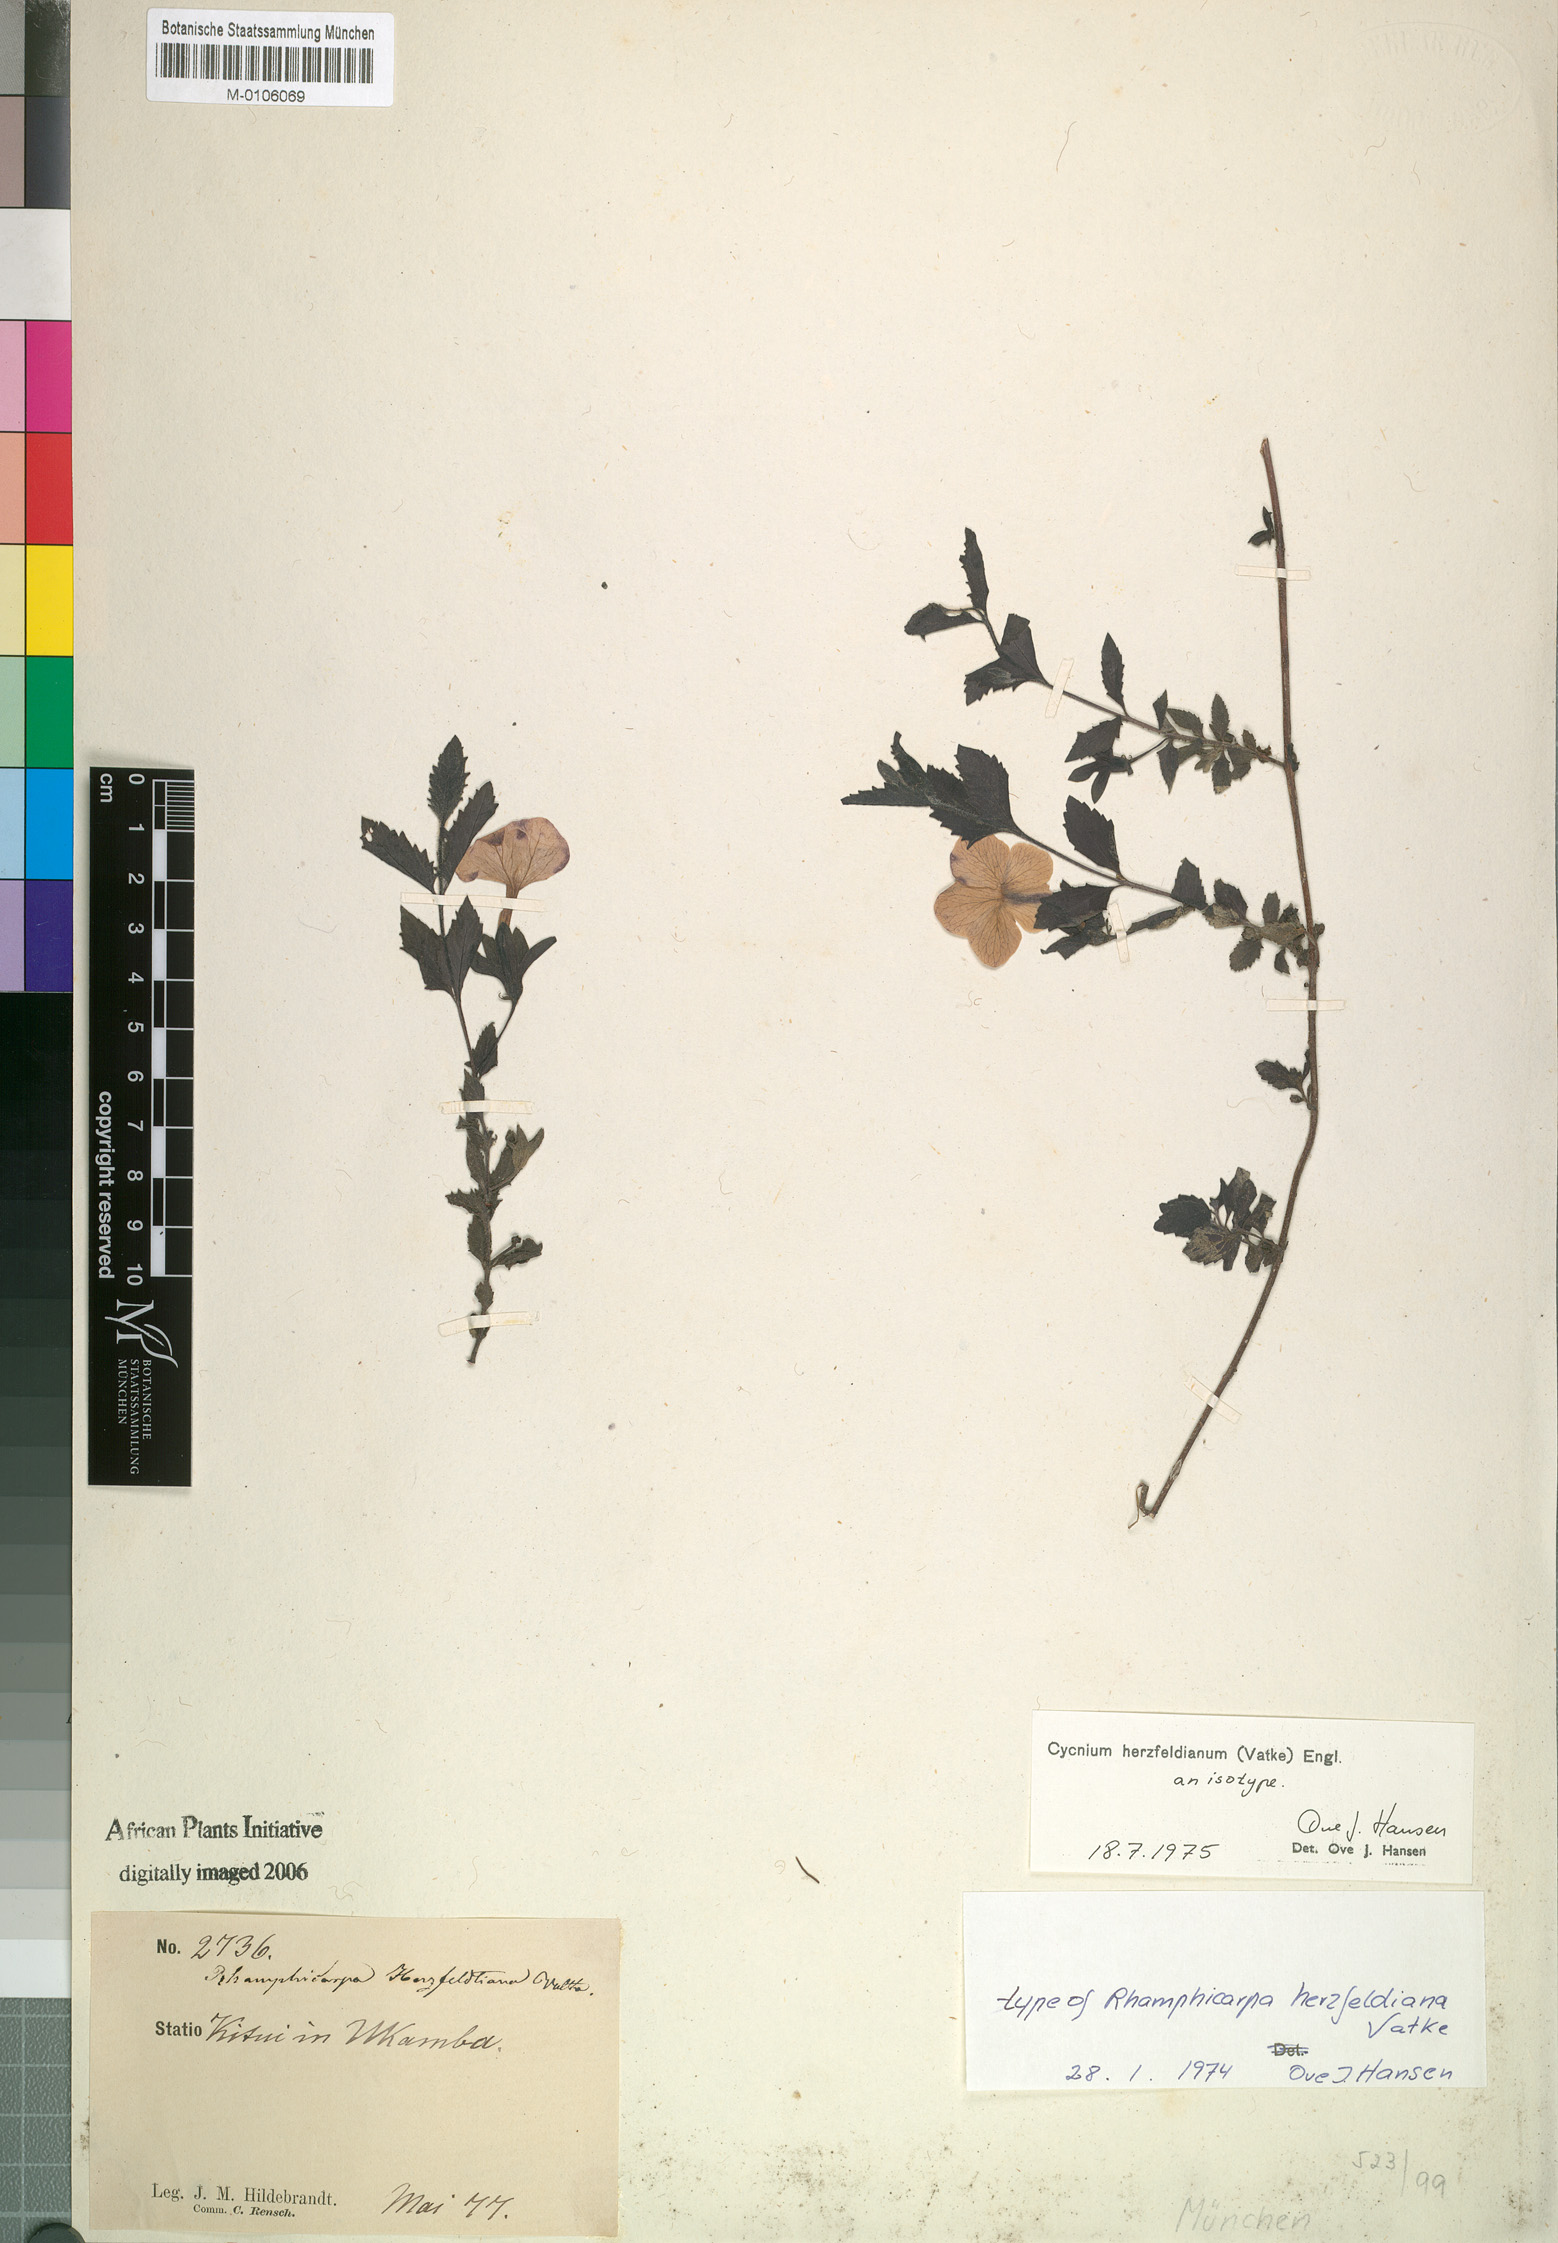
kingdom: Plantae
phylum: Tracheophyta
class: Magnoliopsida
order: Lamiales
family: Orobanchaceae
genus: Cycnium
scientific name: Cycnium herzfeldianum
